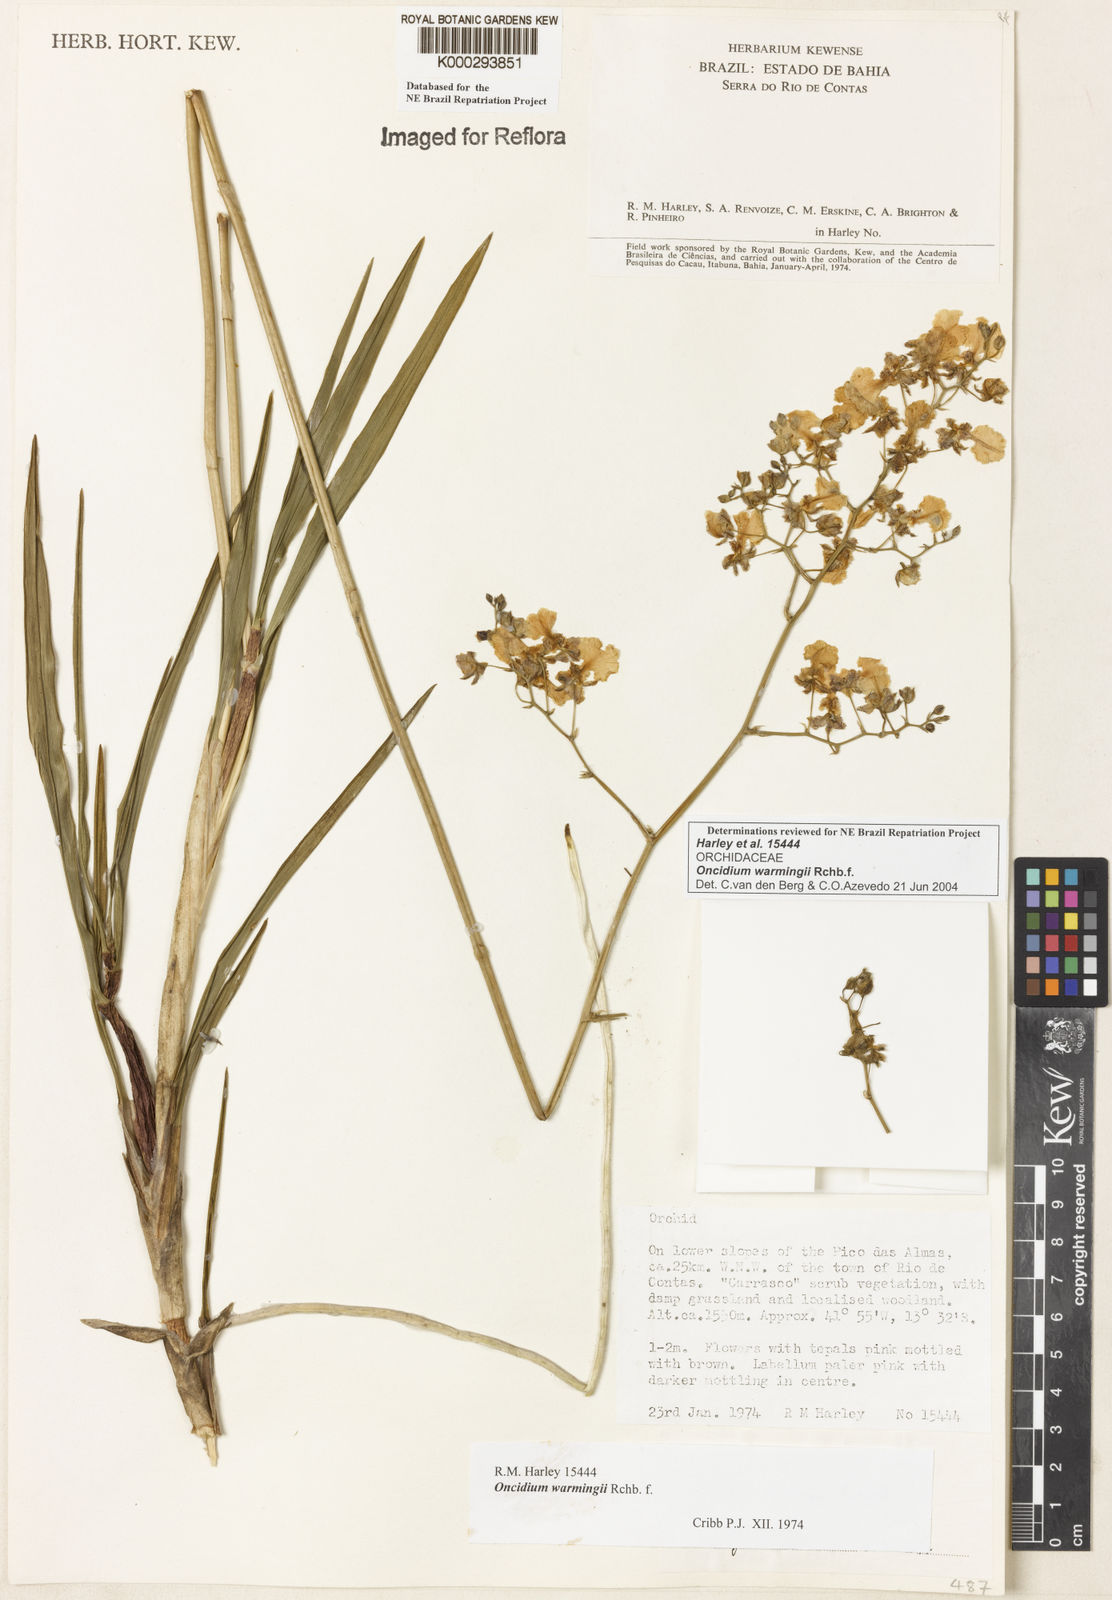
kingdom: Plantae
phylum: Tracheophyta
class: Liliopsida
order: Asparagales
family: Orchidaceae
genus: Gomesa
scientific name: Gomesa warmingii
